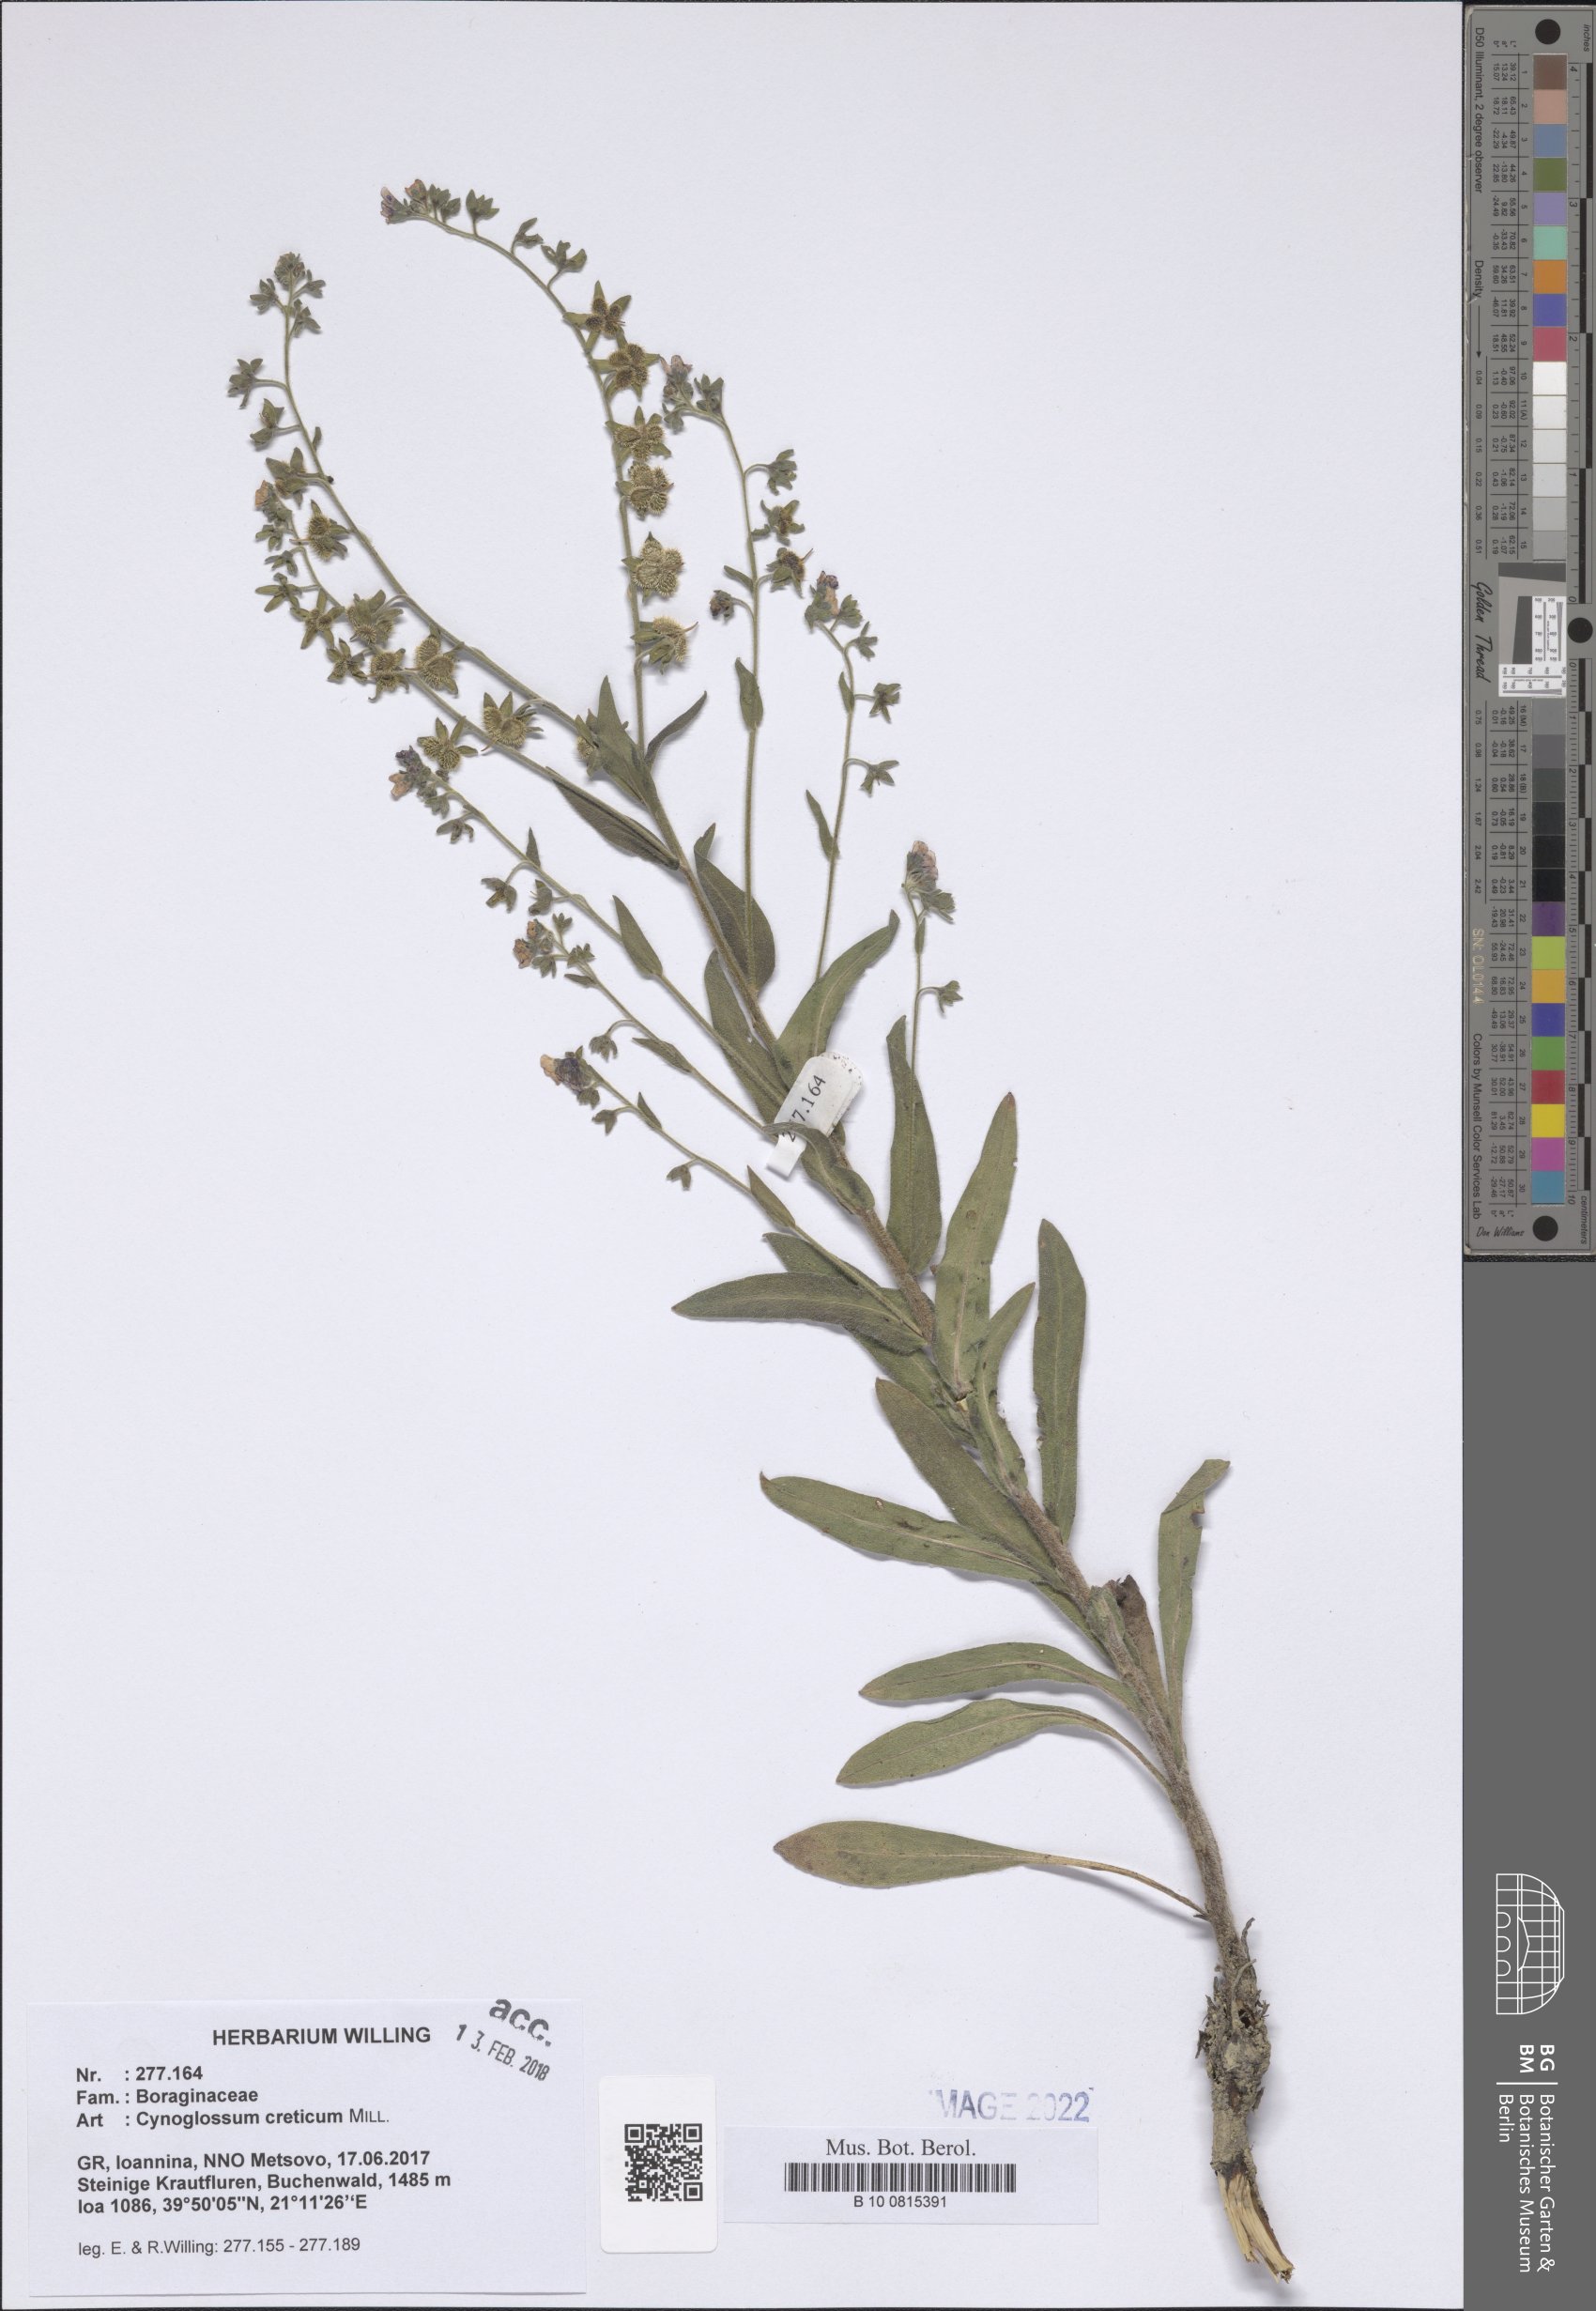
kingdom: Plantae
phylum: Tracheophyta
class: Magnoliopsida
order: Boraginales
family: Boraginaceae
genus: Cynoglossum
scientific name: Cynoglossum creticum
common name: Blue hound's tongue
